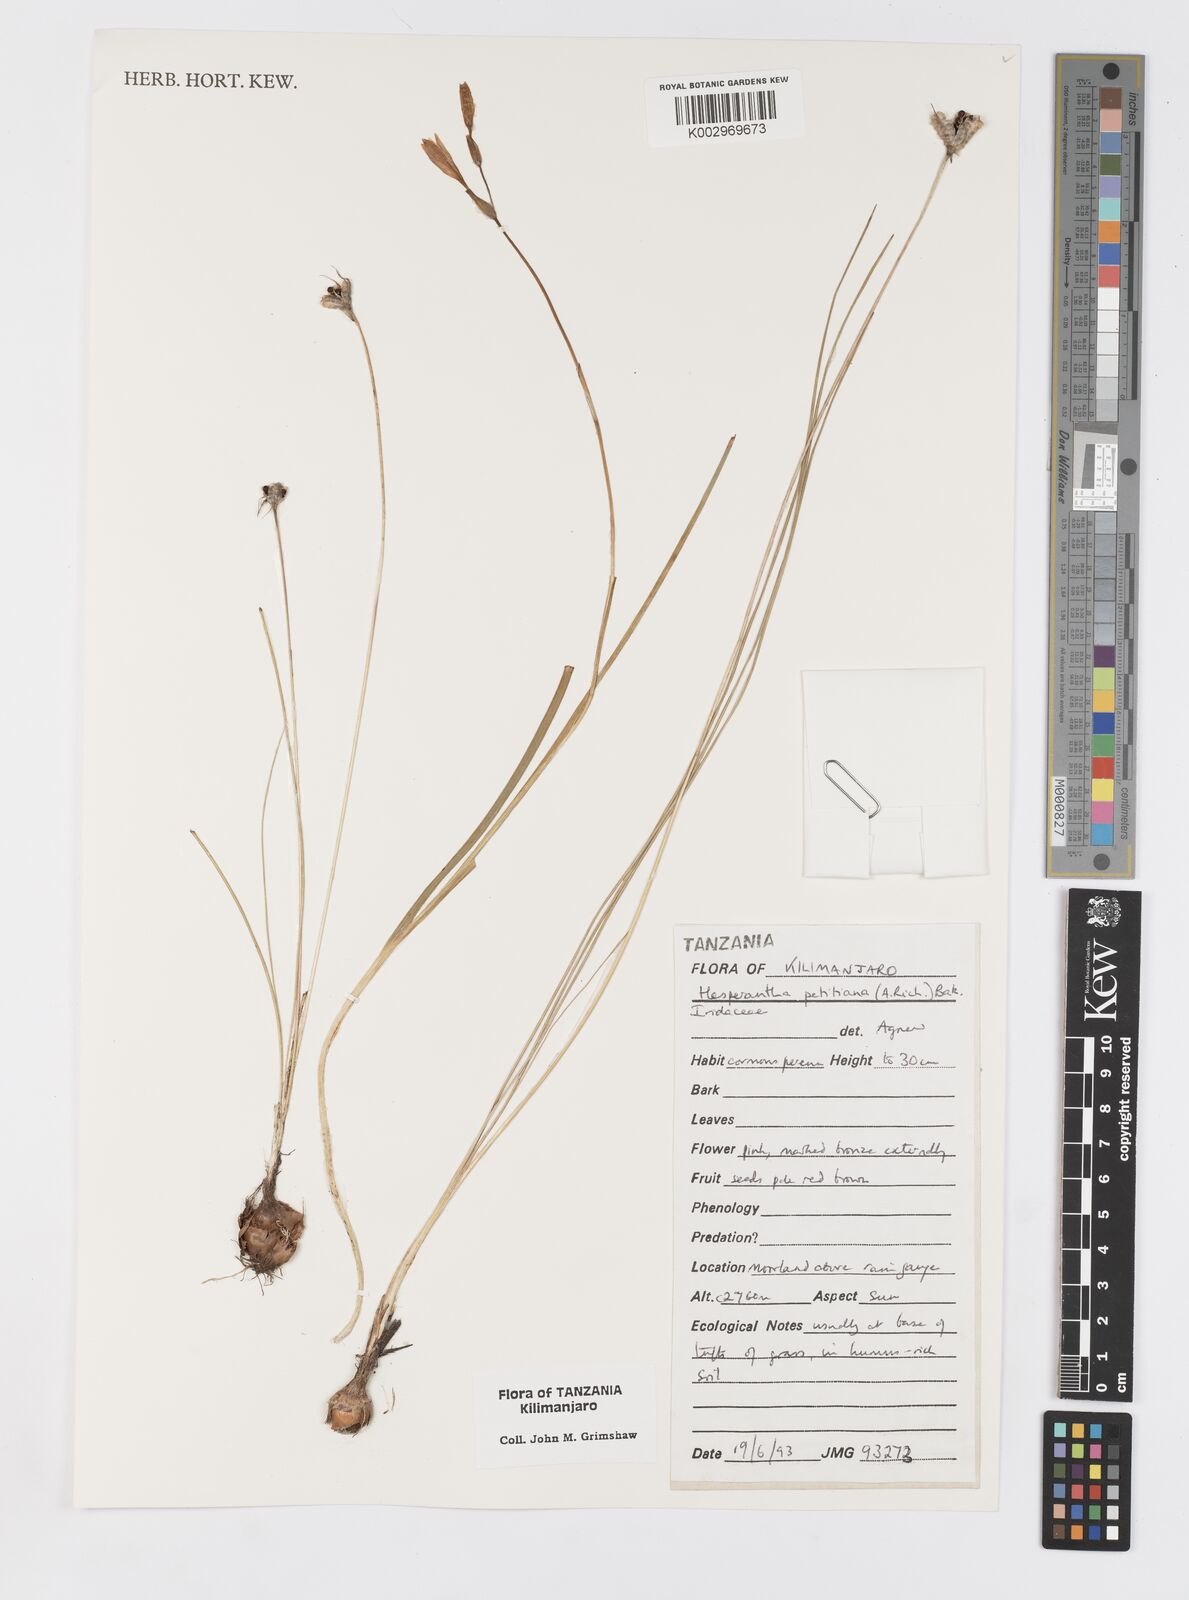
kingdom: Plantae
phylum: Tracheophyta
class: Liliopsida
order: Asparagales
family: Iridaceae
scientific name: Iridaceae
